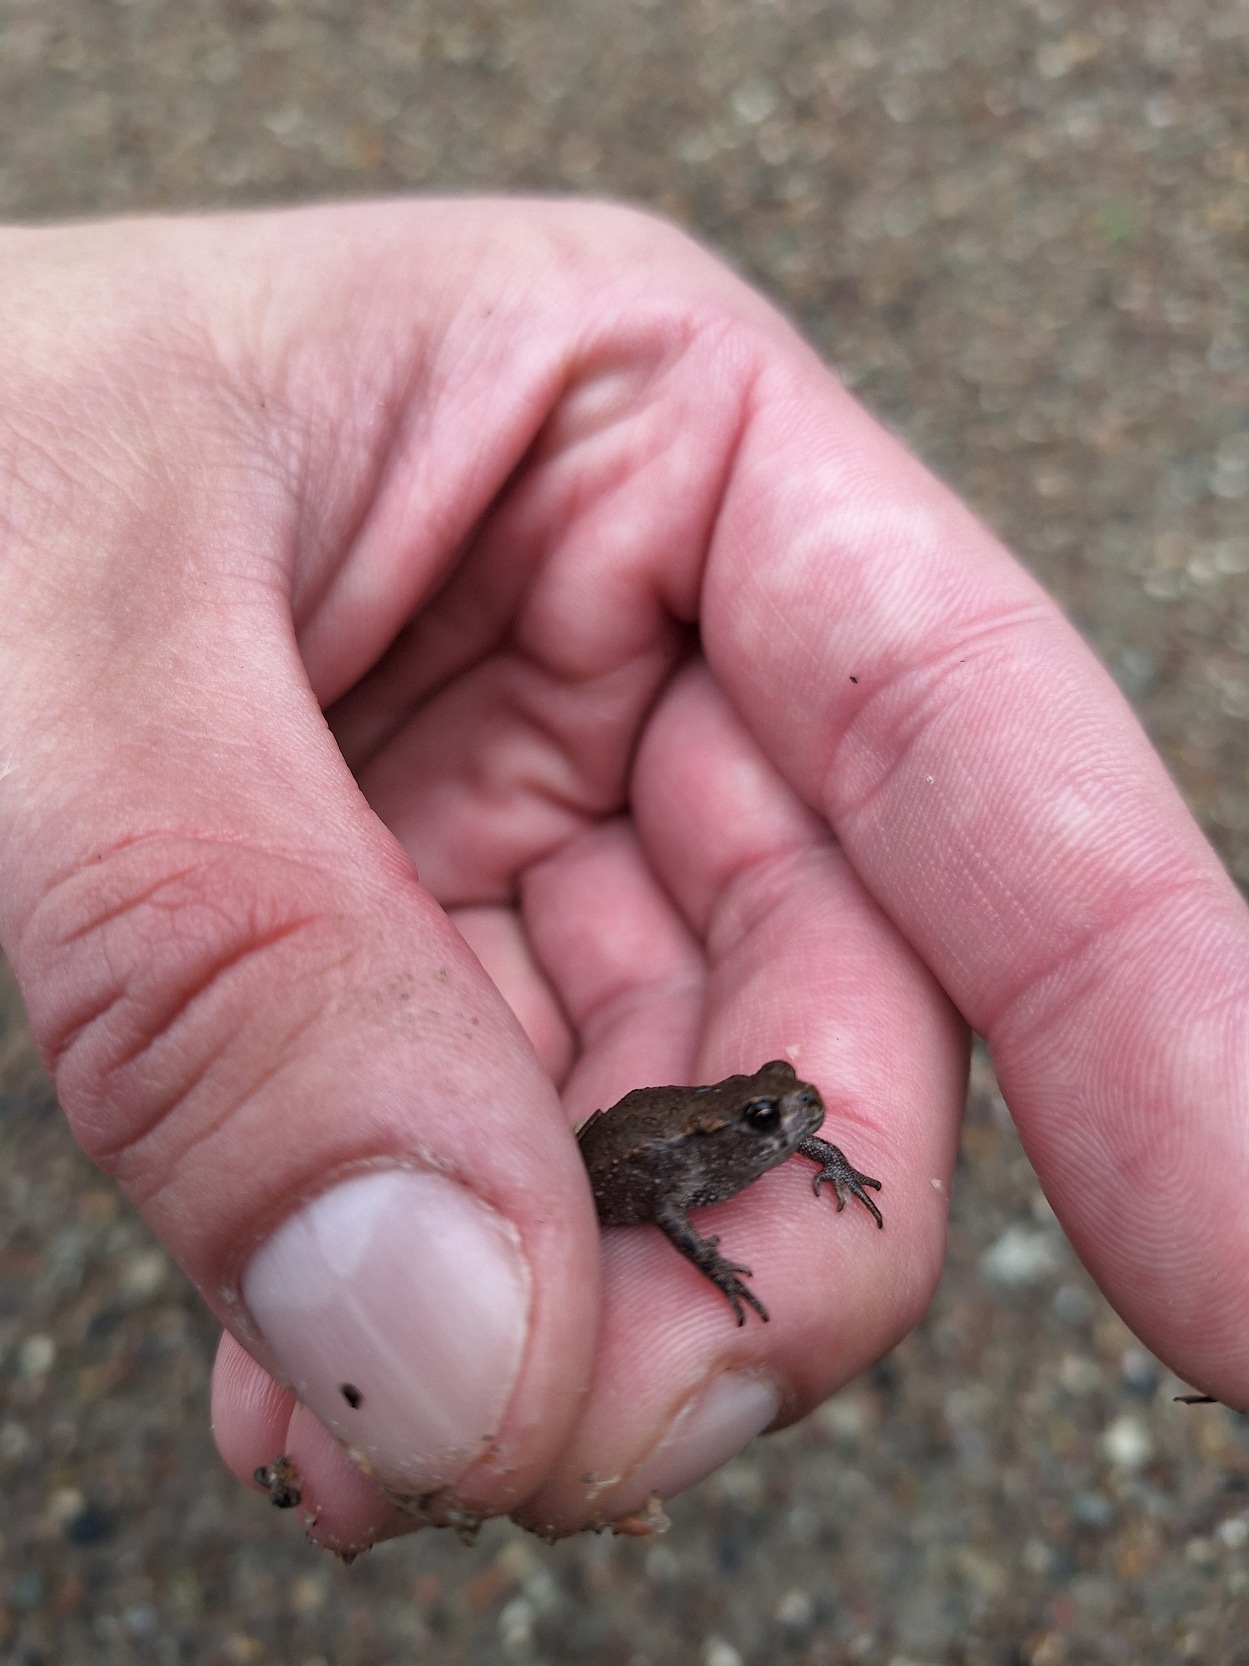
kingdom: Animalia
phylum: Chordata
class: Amphibia
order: Anura
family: Bufonidae
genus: Bufo
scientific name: Bufo bufo
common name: Skrubtudse
